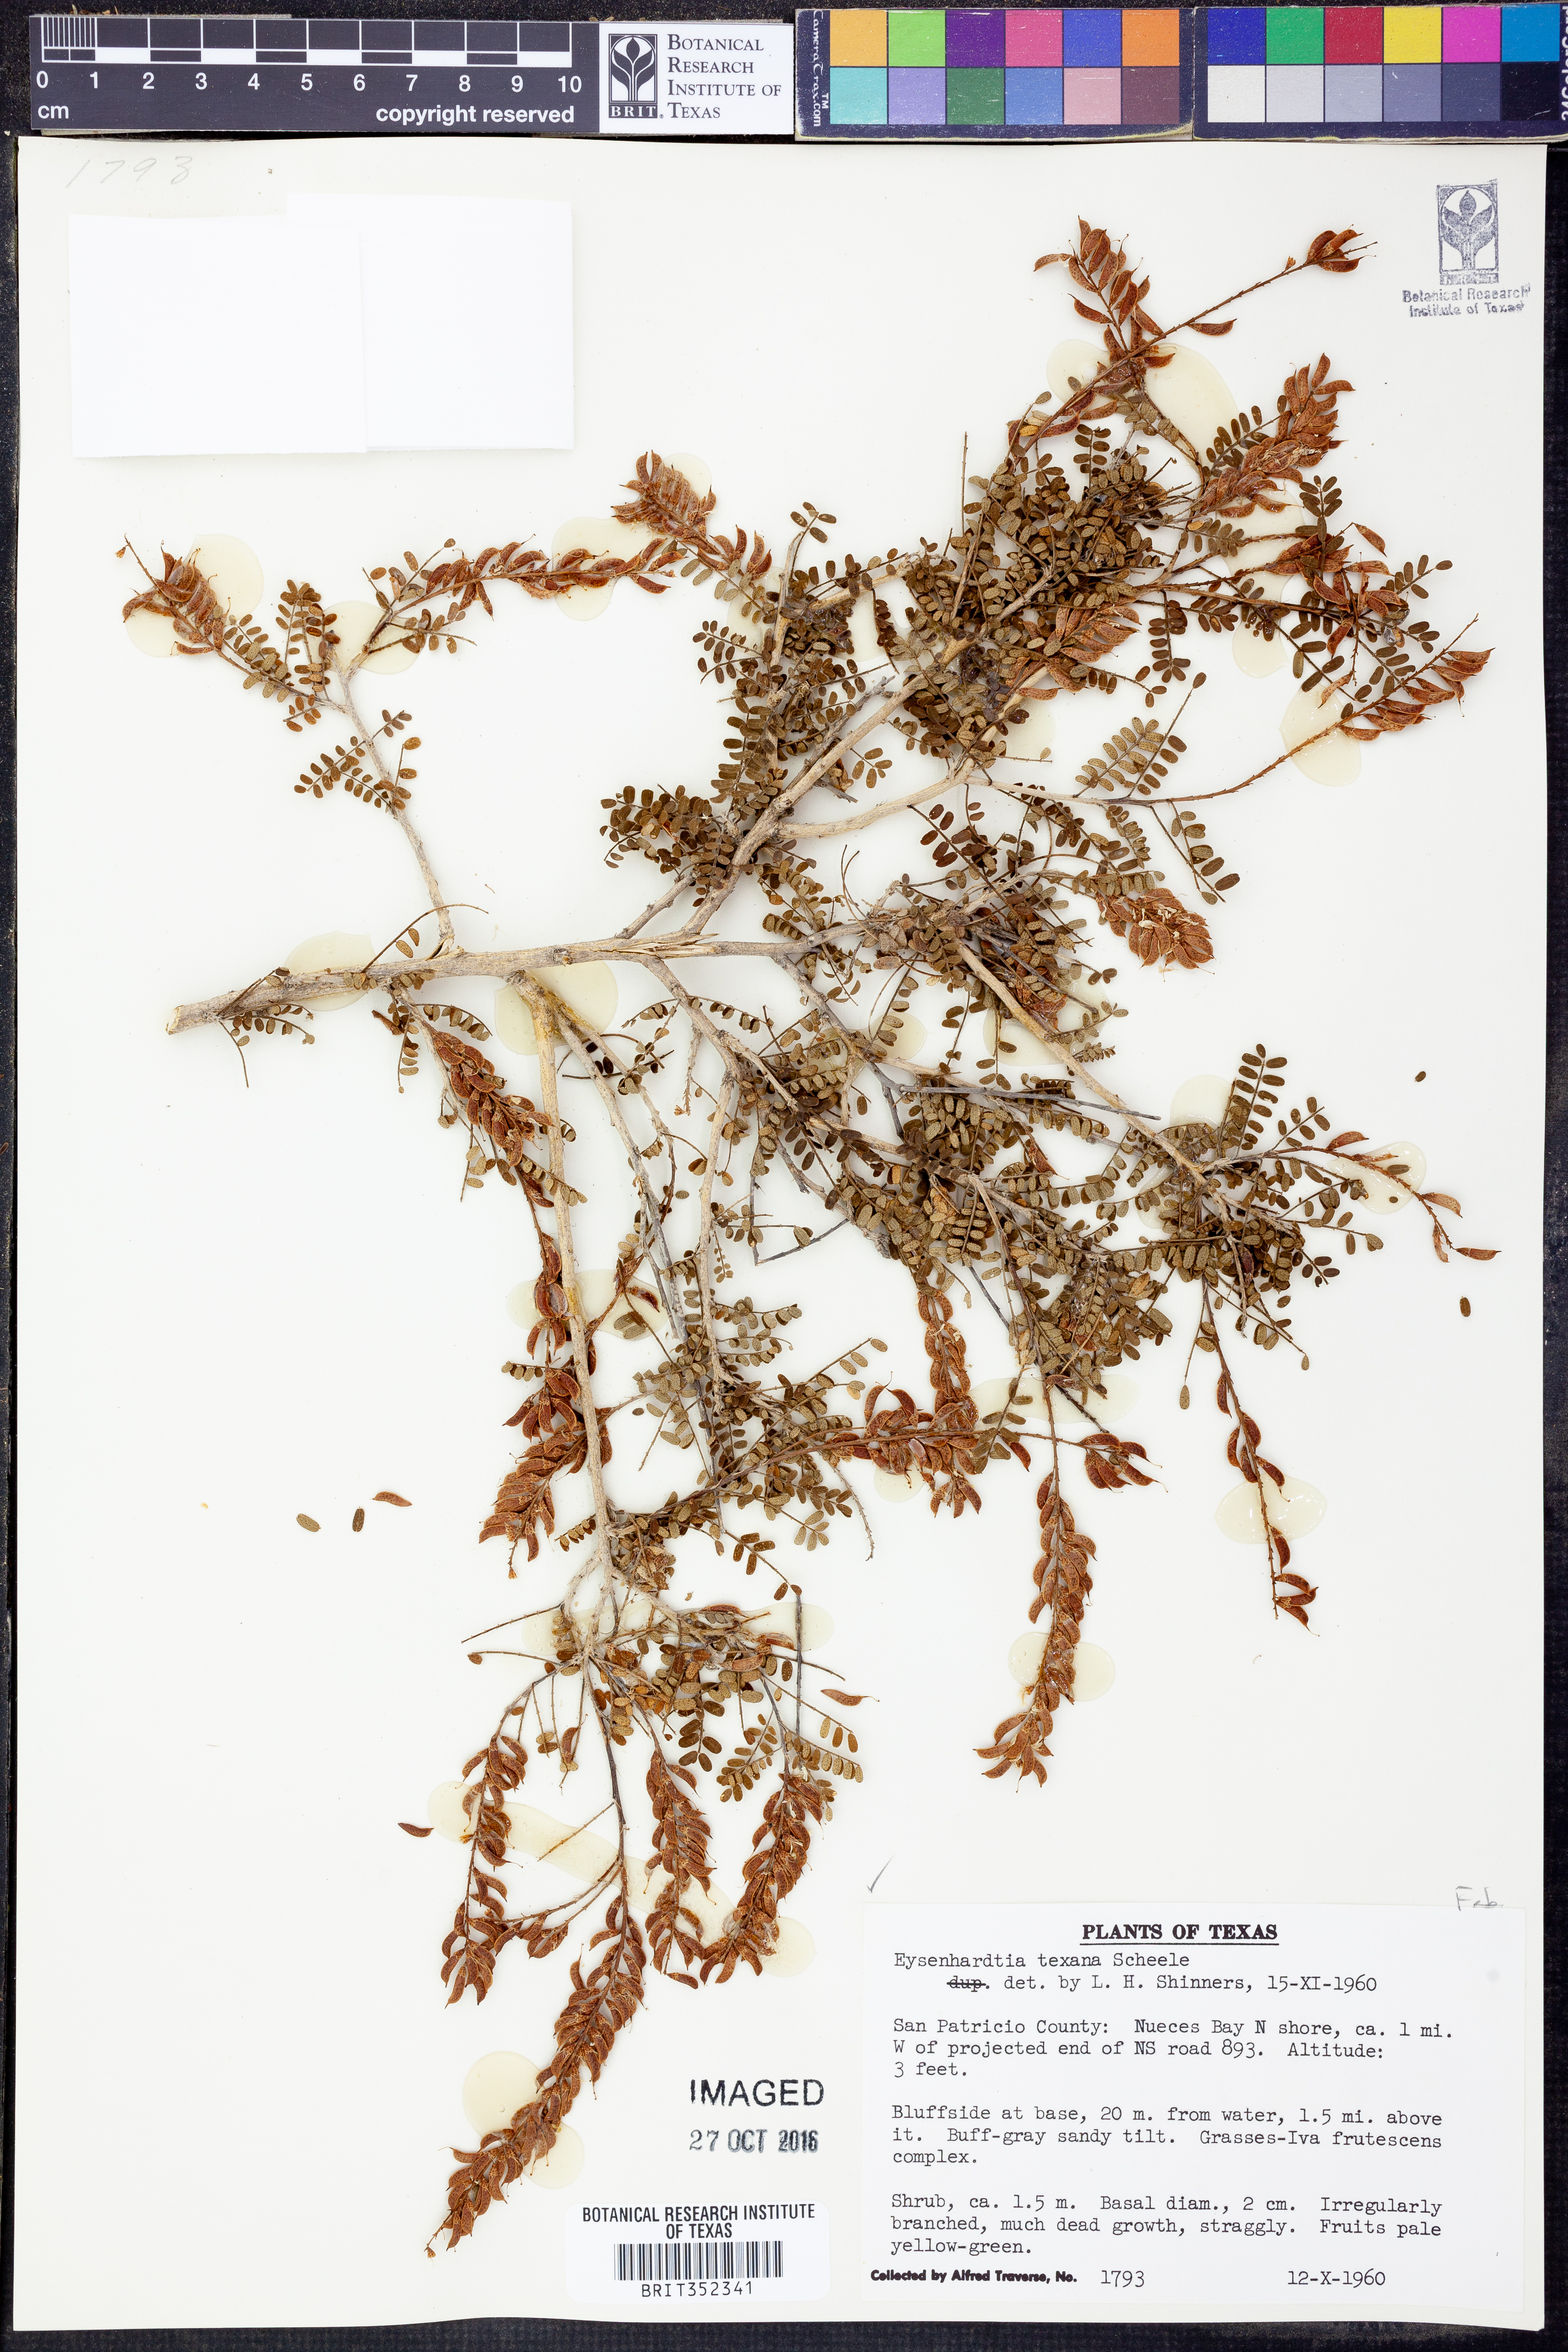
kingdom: Plantae
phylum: Tracheophyta
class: Magnoliopsida
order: Fabales
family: Fabaceae
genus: Eysenhardtia
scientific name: Eysenhardtia texana
